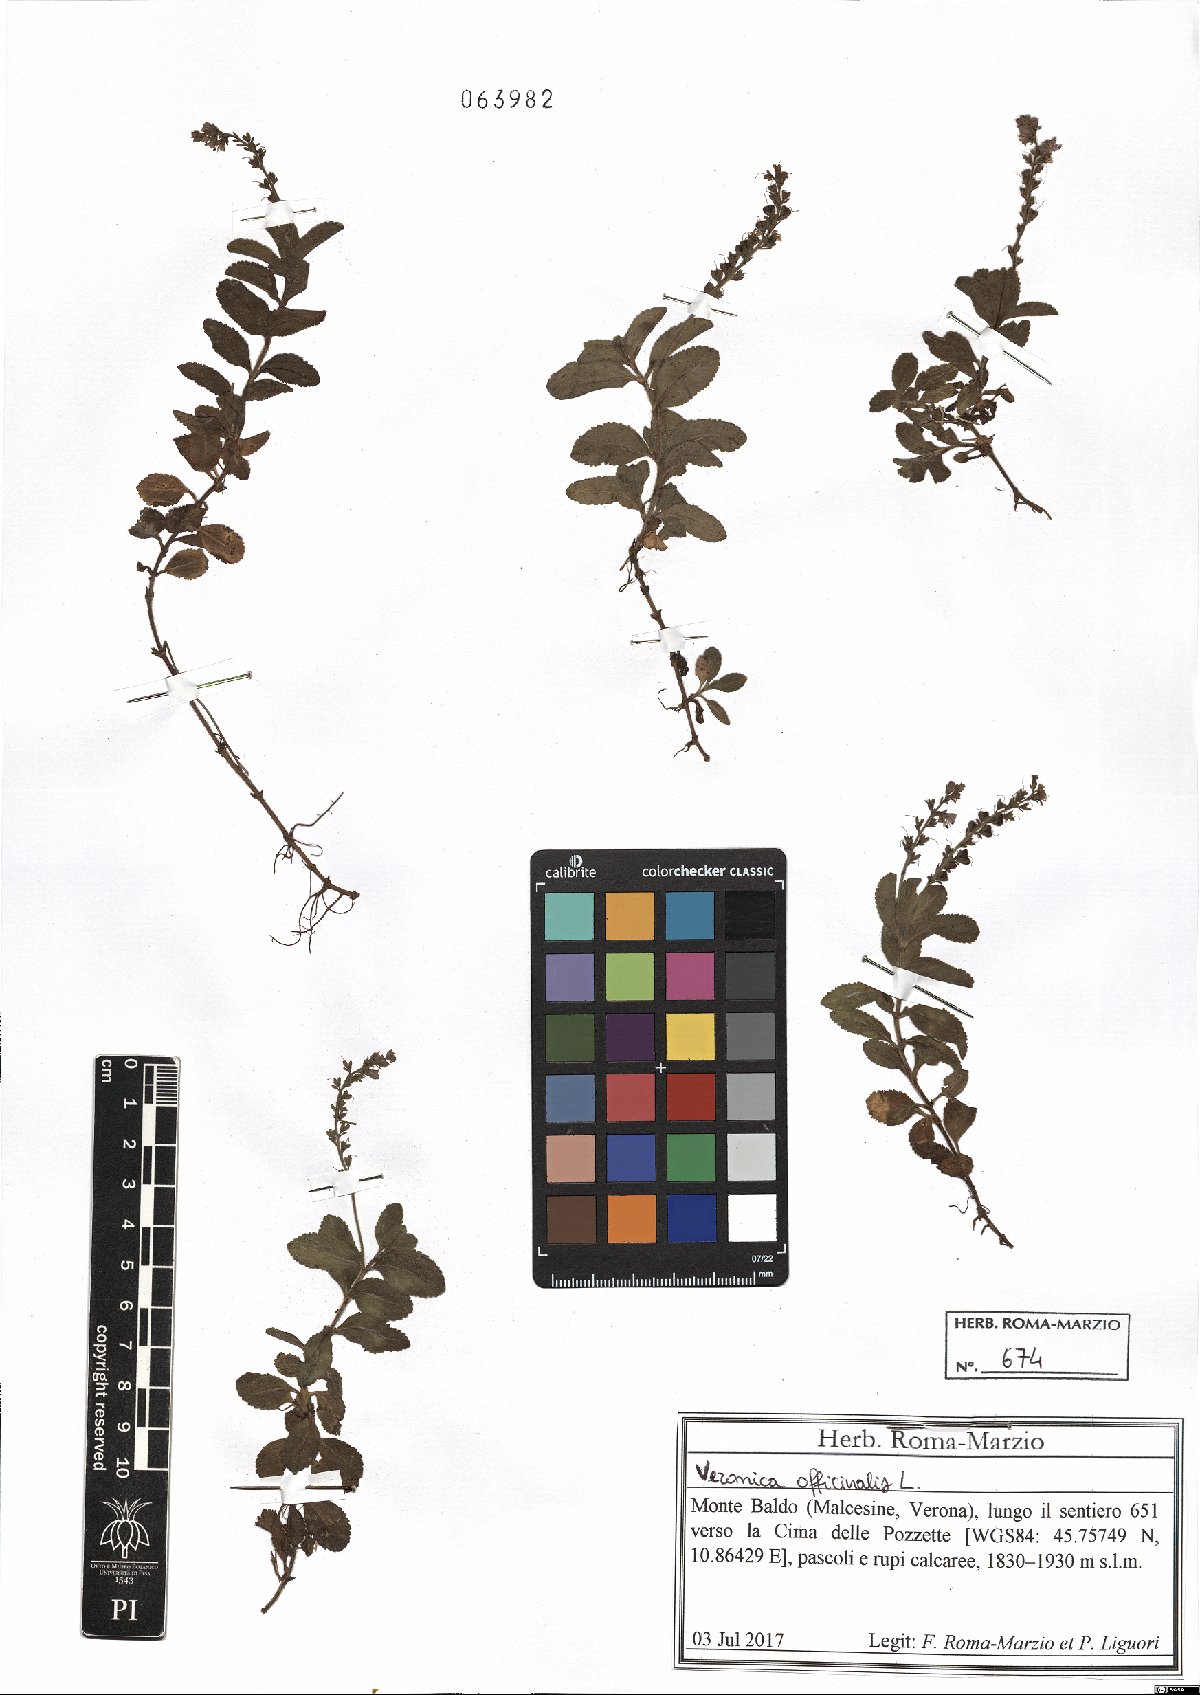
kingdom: Plantae
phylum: Tracheophyta
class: Magnoliopsida
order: Lamiales
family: Plantaginaceae
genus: Veronica
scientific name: Veronica officinalis
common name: Common speedwell
